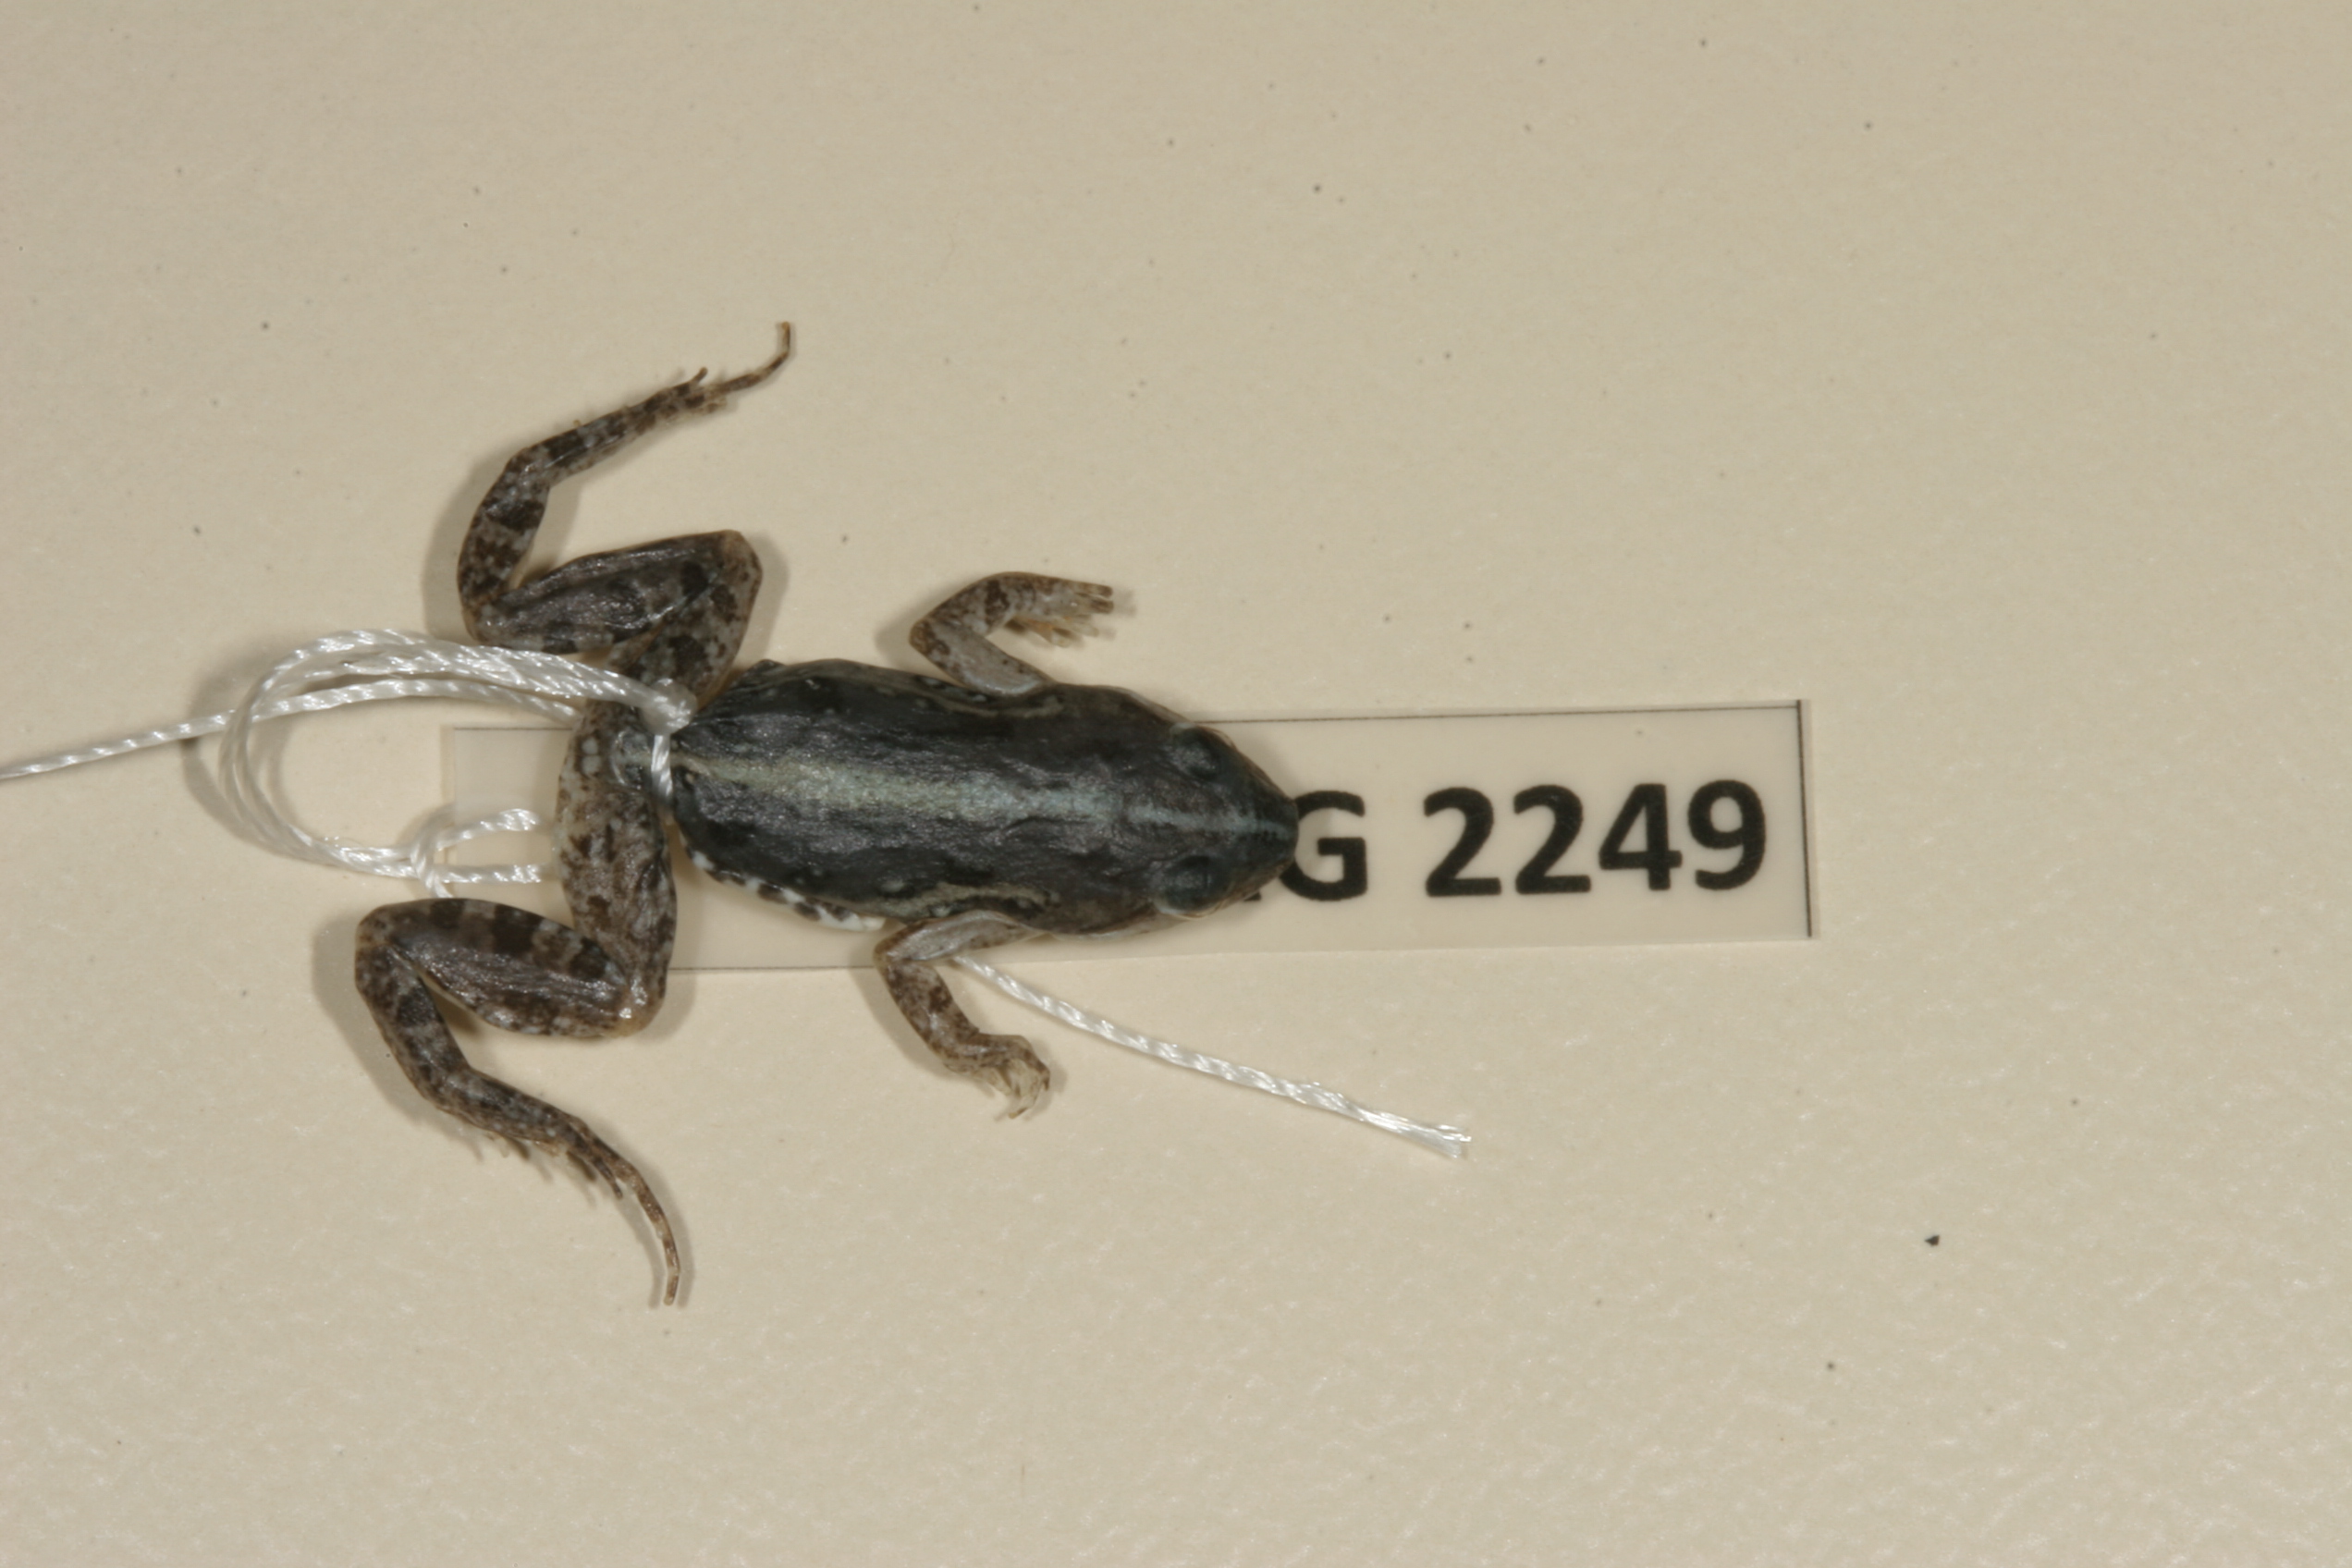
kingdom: Animalia
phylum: Chordata
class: Amphibia
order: Anura
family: Pyxicephalidae
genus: Cacosternum
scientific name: Cacosternum boettgeri
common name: Boettger's frog
